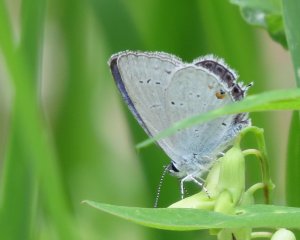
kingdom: Animalia
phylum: Arthropoda
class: Insecta
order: Lepidoptera
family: Lycaenidae
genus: Elkalyce
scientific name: Elkalyce amyntula
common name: Western Tailed-Blue
